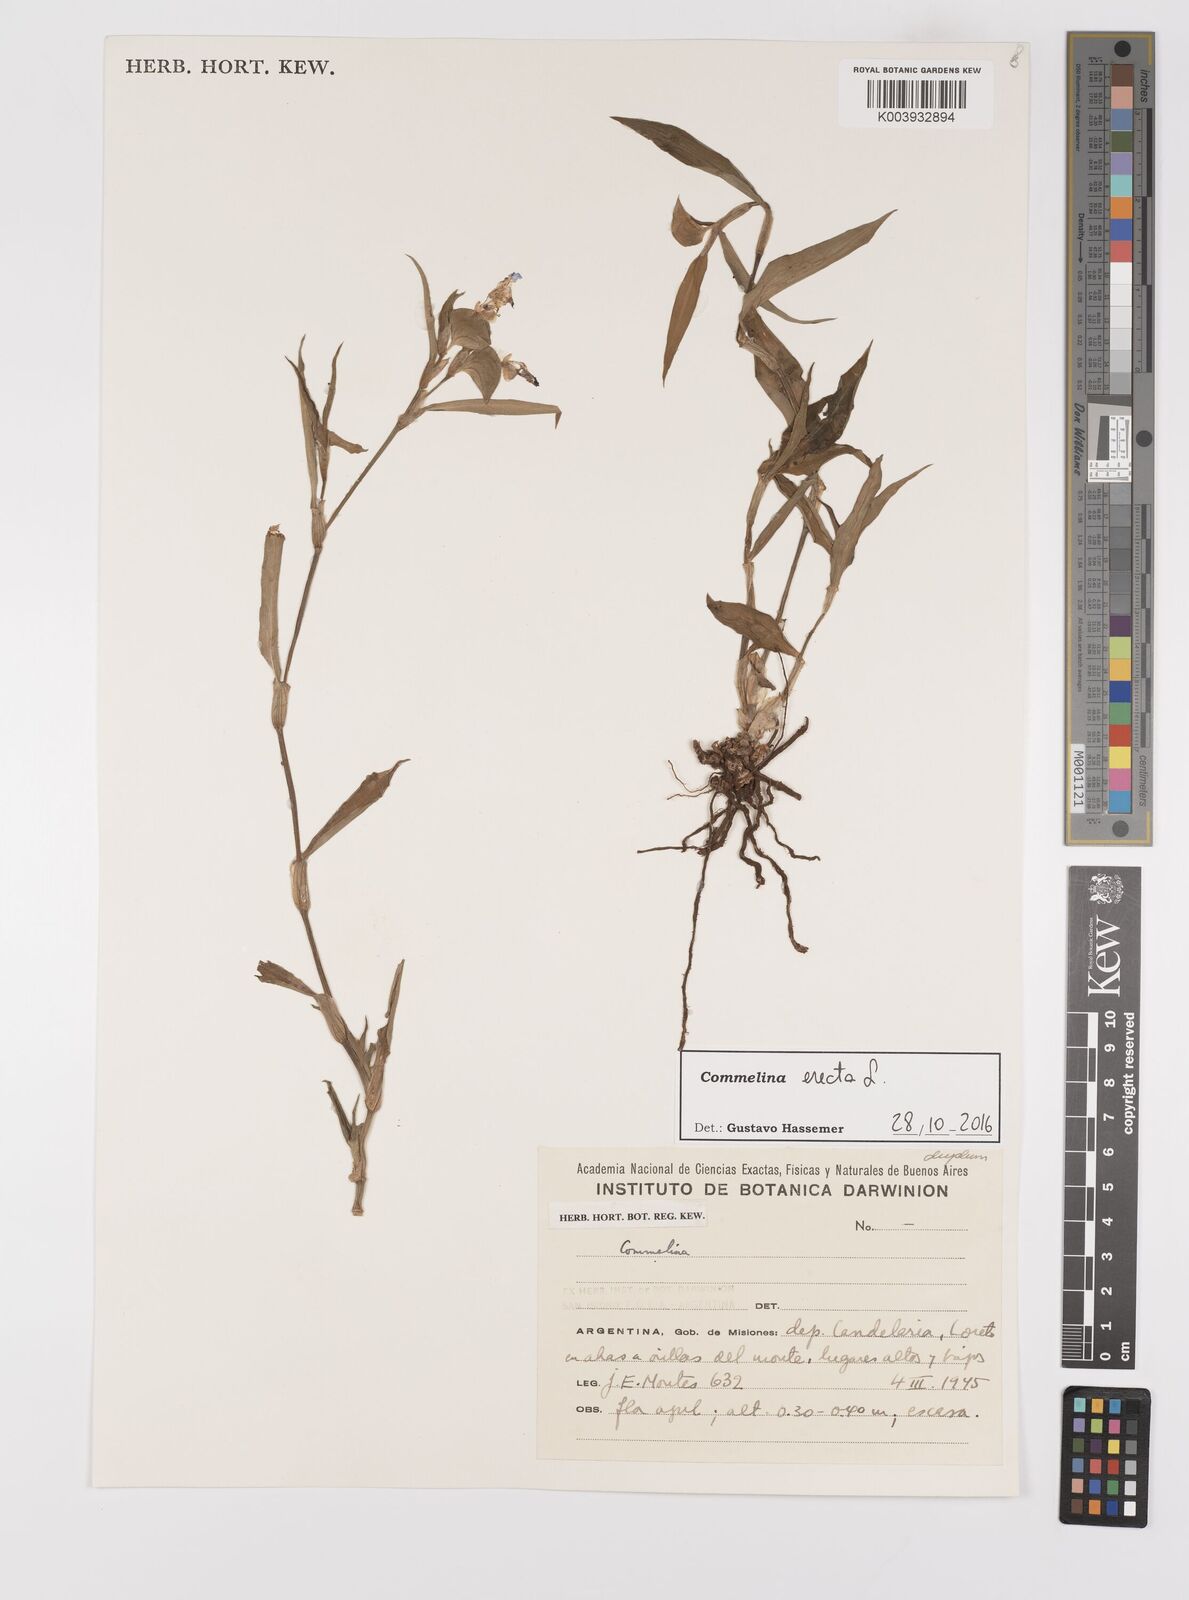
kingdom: Plantae
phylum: Tracheophyta
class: Liliopsida
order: Commelinales
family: Commelinaceae
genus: Commelina
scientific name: Commelina erecta
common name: Blousel blommetjie
